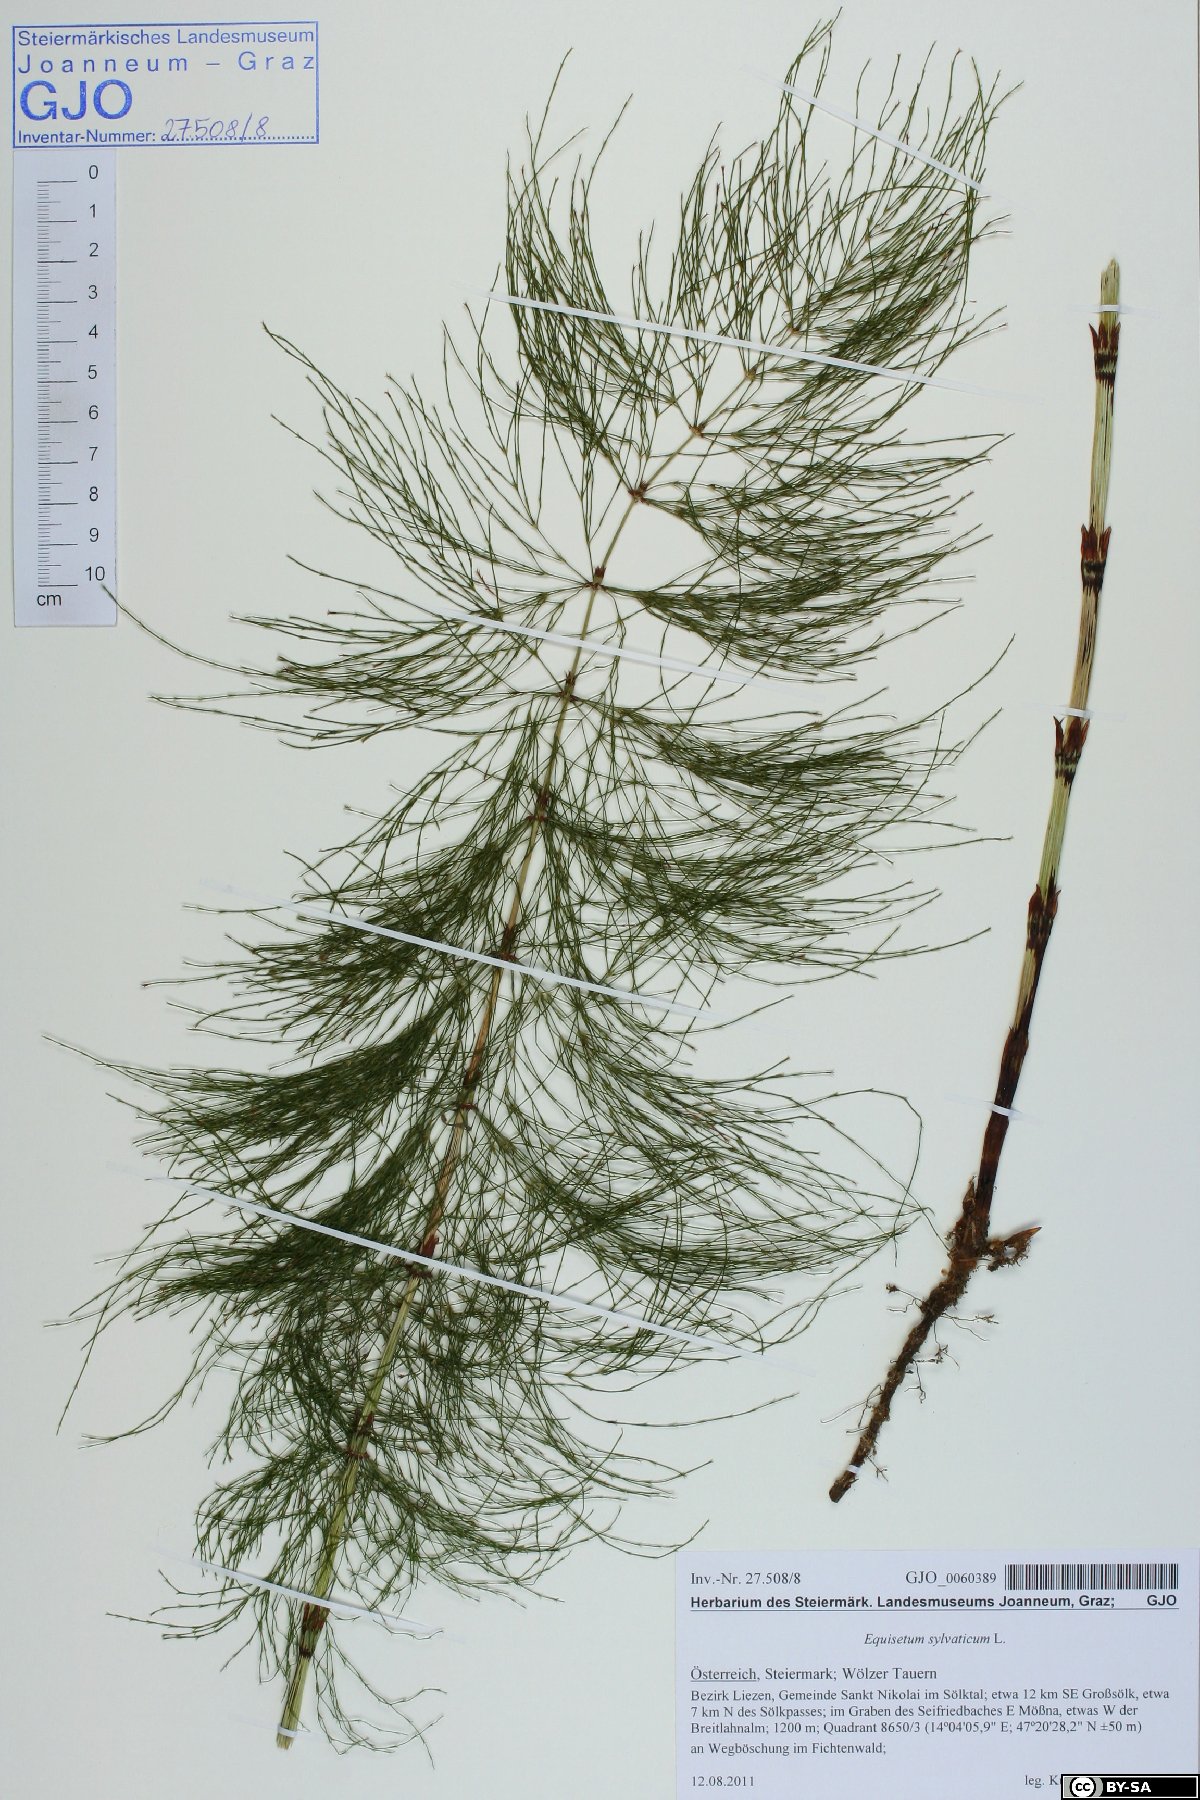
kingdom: Plantae
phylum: Tracheophyta
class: Polypodiopsida
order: Equisetales
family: Equisetaceae
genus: Equisetum
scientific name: Equisetum sylvaticum
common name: Wood horsetail
